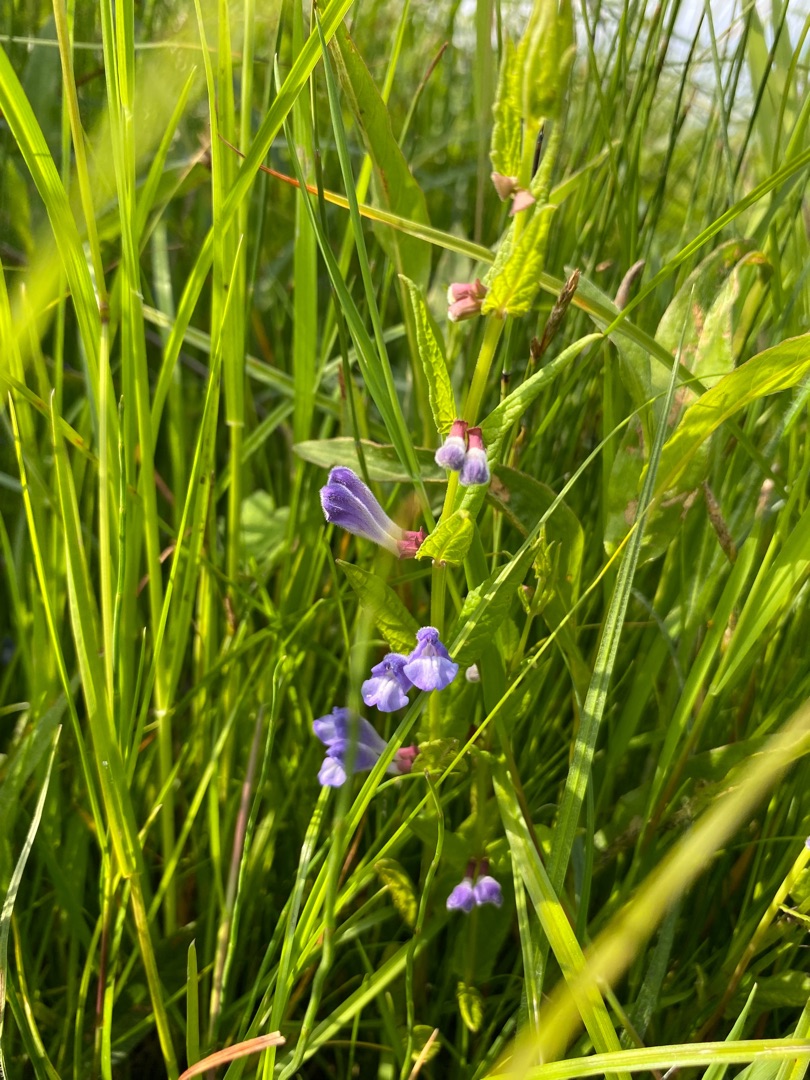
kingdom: Plantae
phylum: Tracheophyta
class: Magnoliopsida
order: Lamiales
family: Lamiaceae
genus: Scutellaria
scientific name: Scutellaria galericulata
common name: Almindelig skjolddrager
